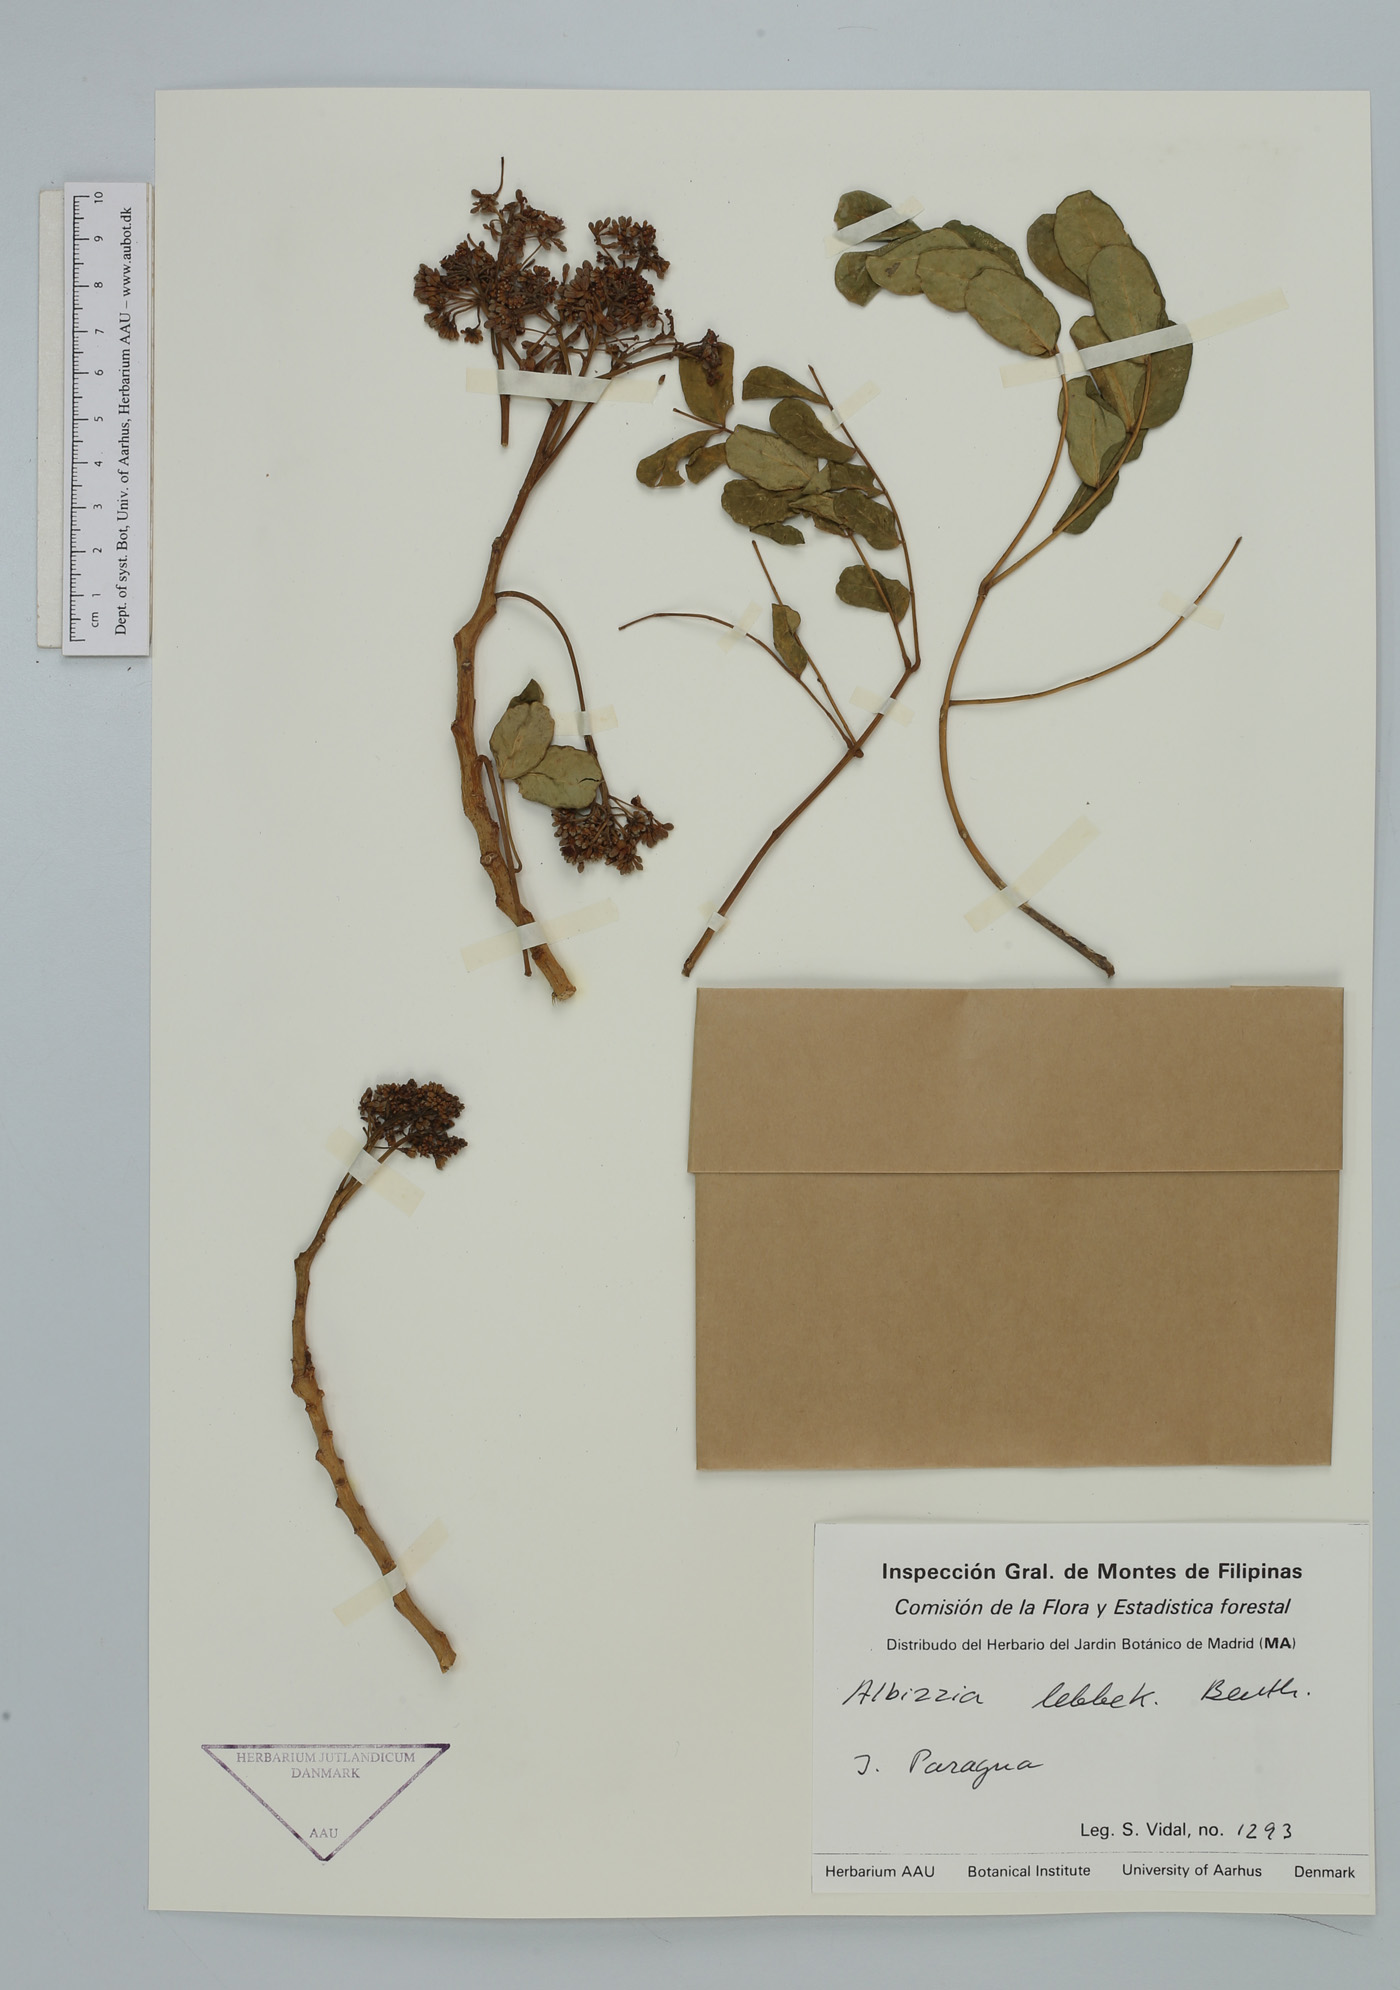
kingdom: Plantae
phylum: Tracheophyta
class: Magnoliopsida
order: Fabales
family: Fabaceae
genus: Albizia
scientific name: Albizia lebbeck
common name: Woman's tongue
